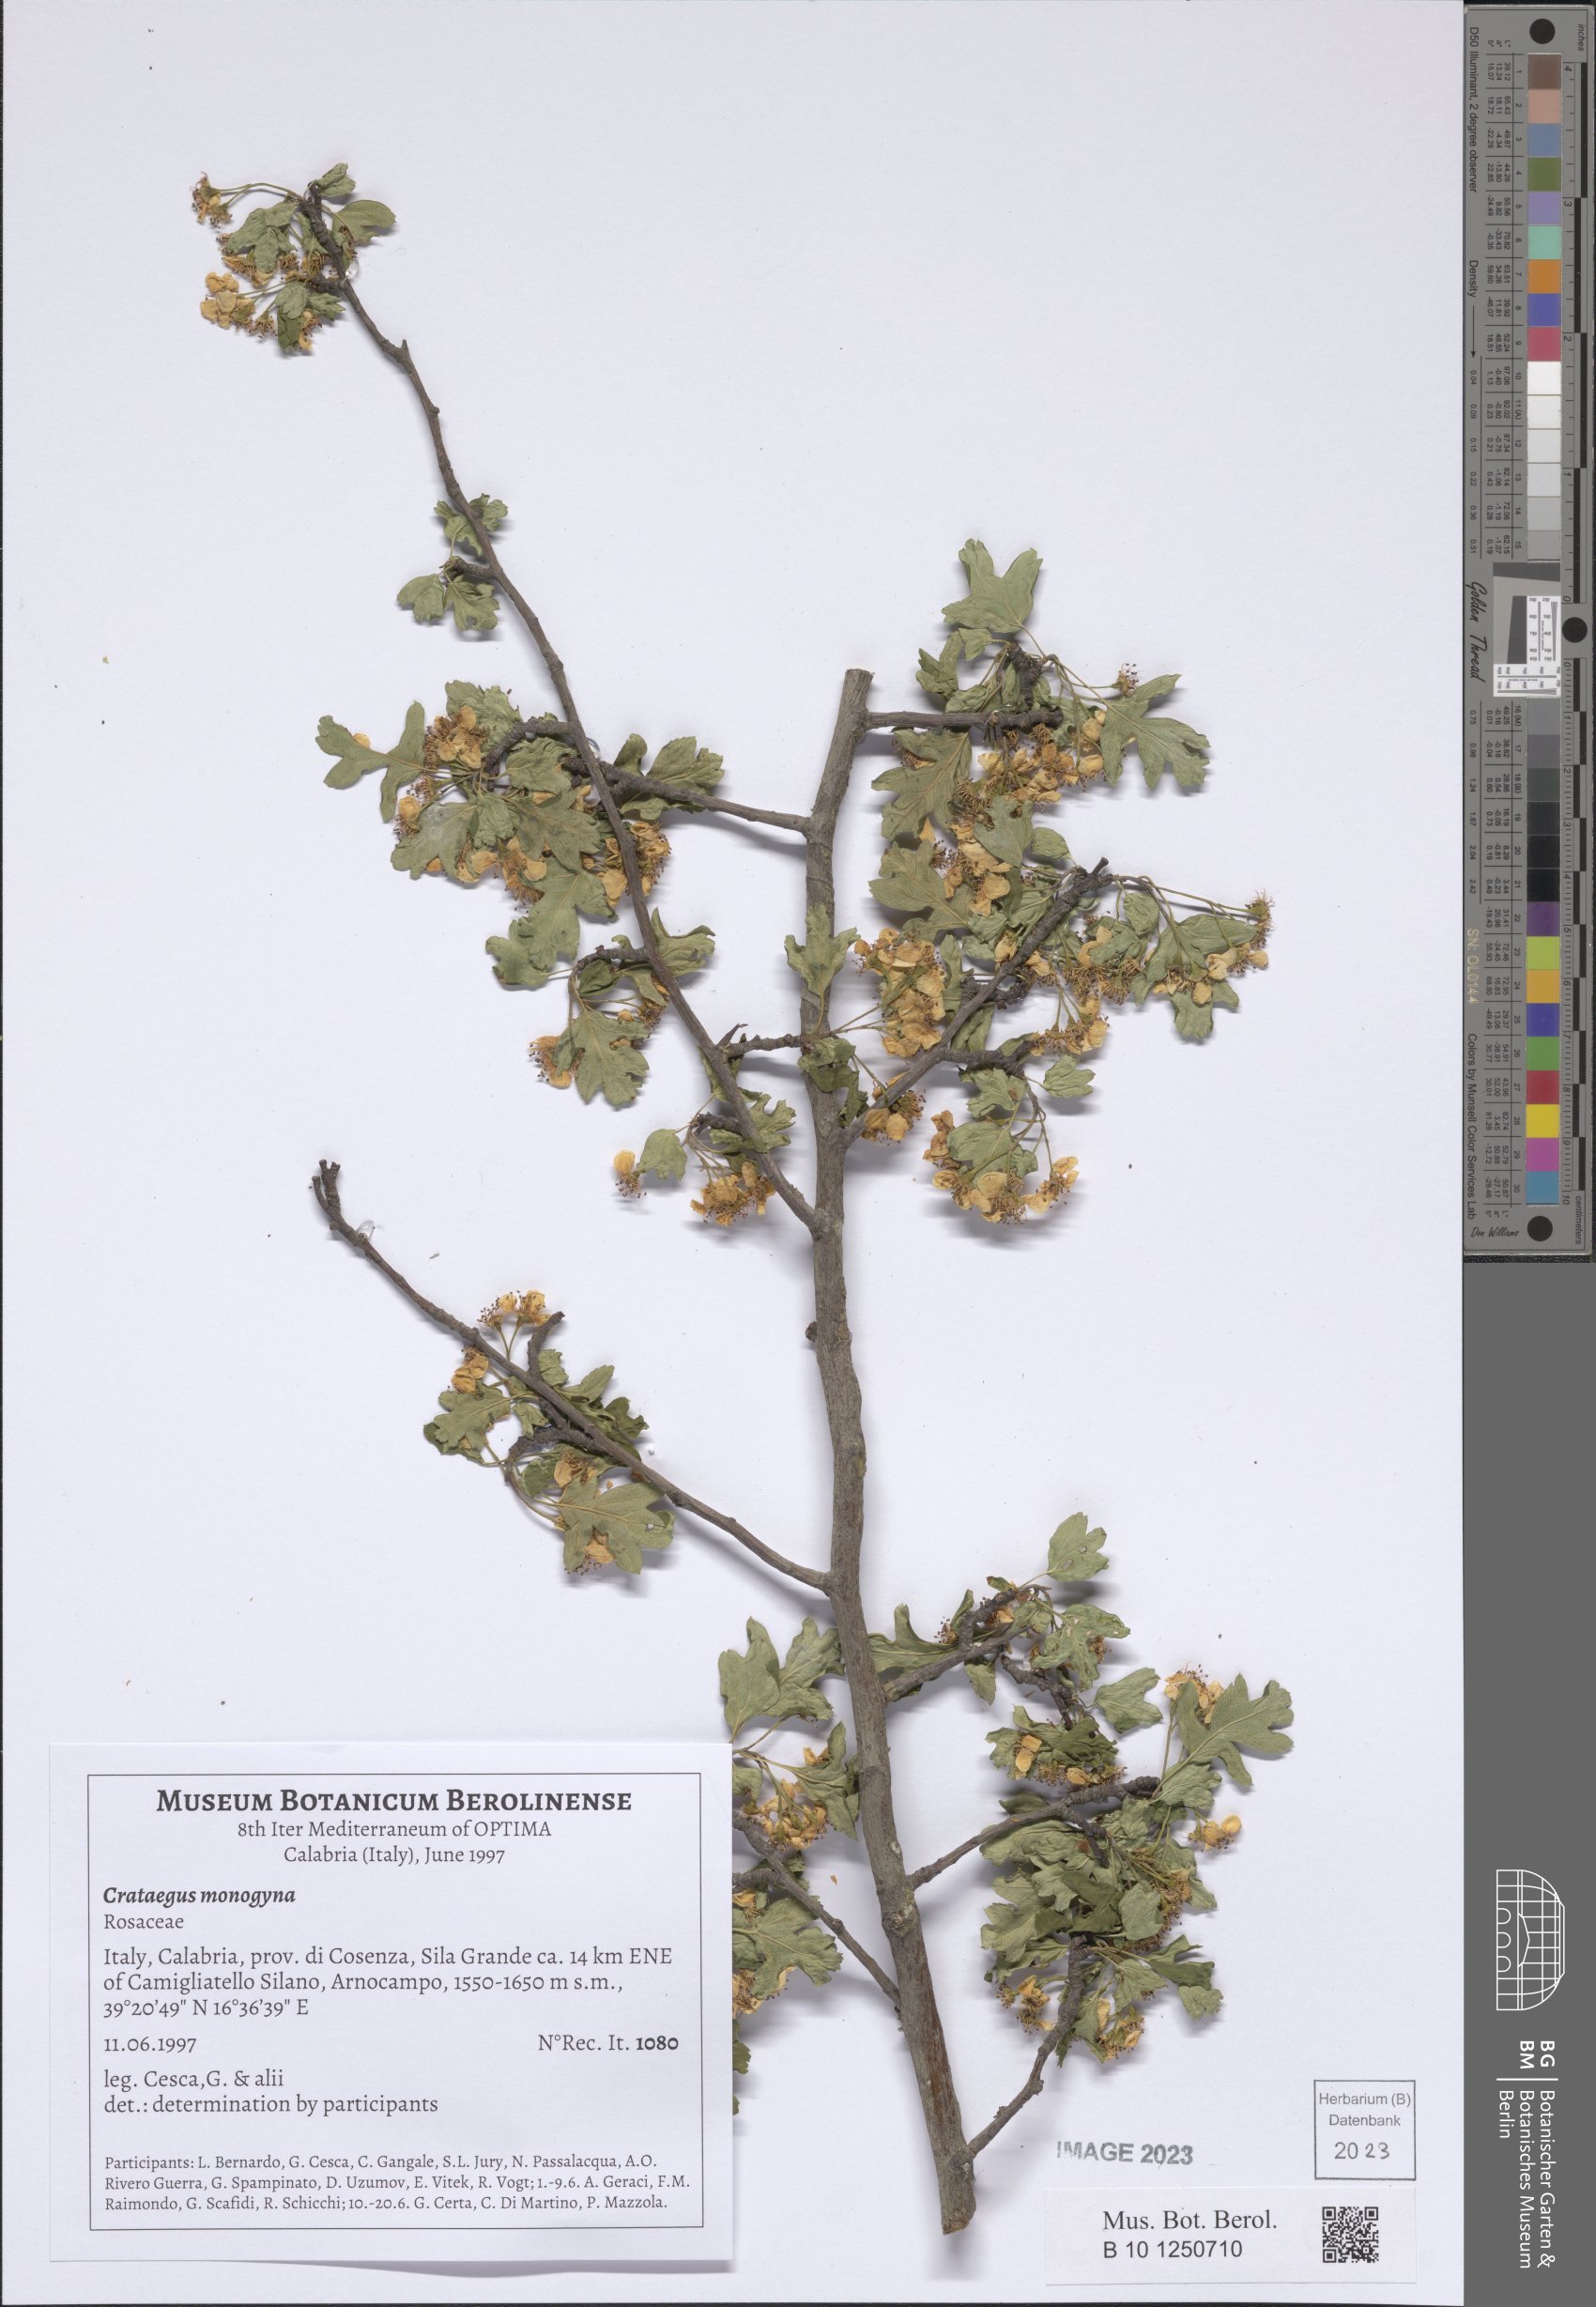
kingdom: Plantae
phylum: Tracheophyta
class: Magnoliopsida
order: Rosales
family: Rosaceae
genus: Crataegus
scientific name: Crataegus monogyna
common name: Hawthorn
